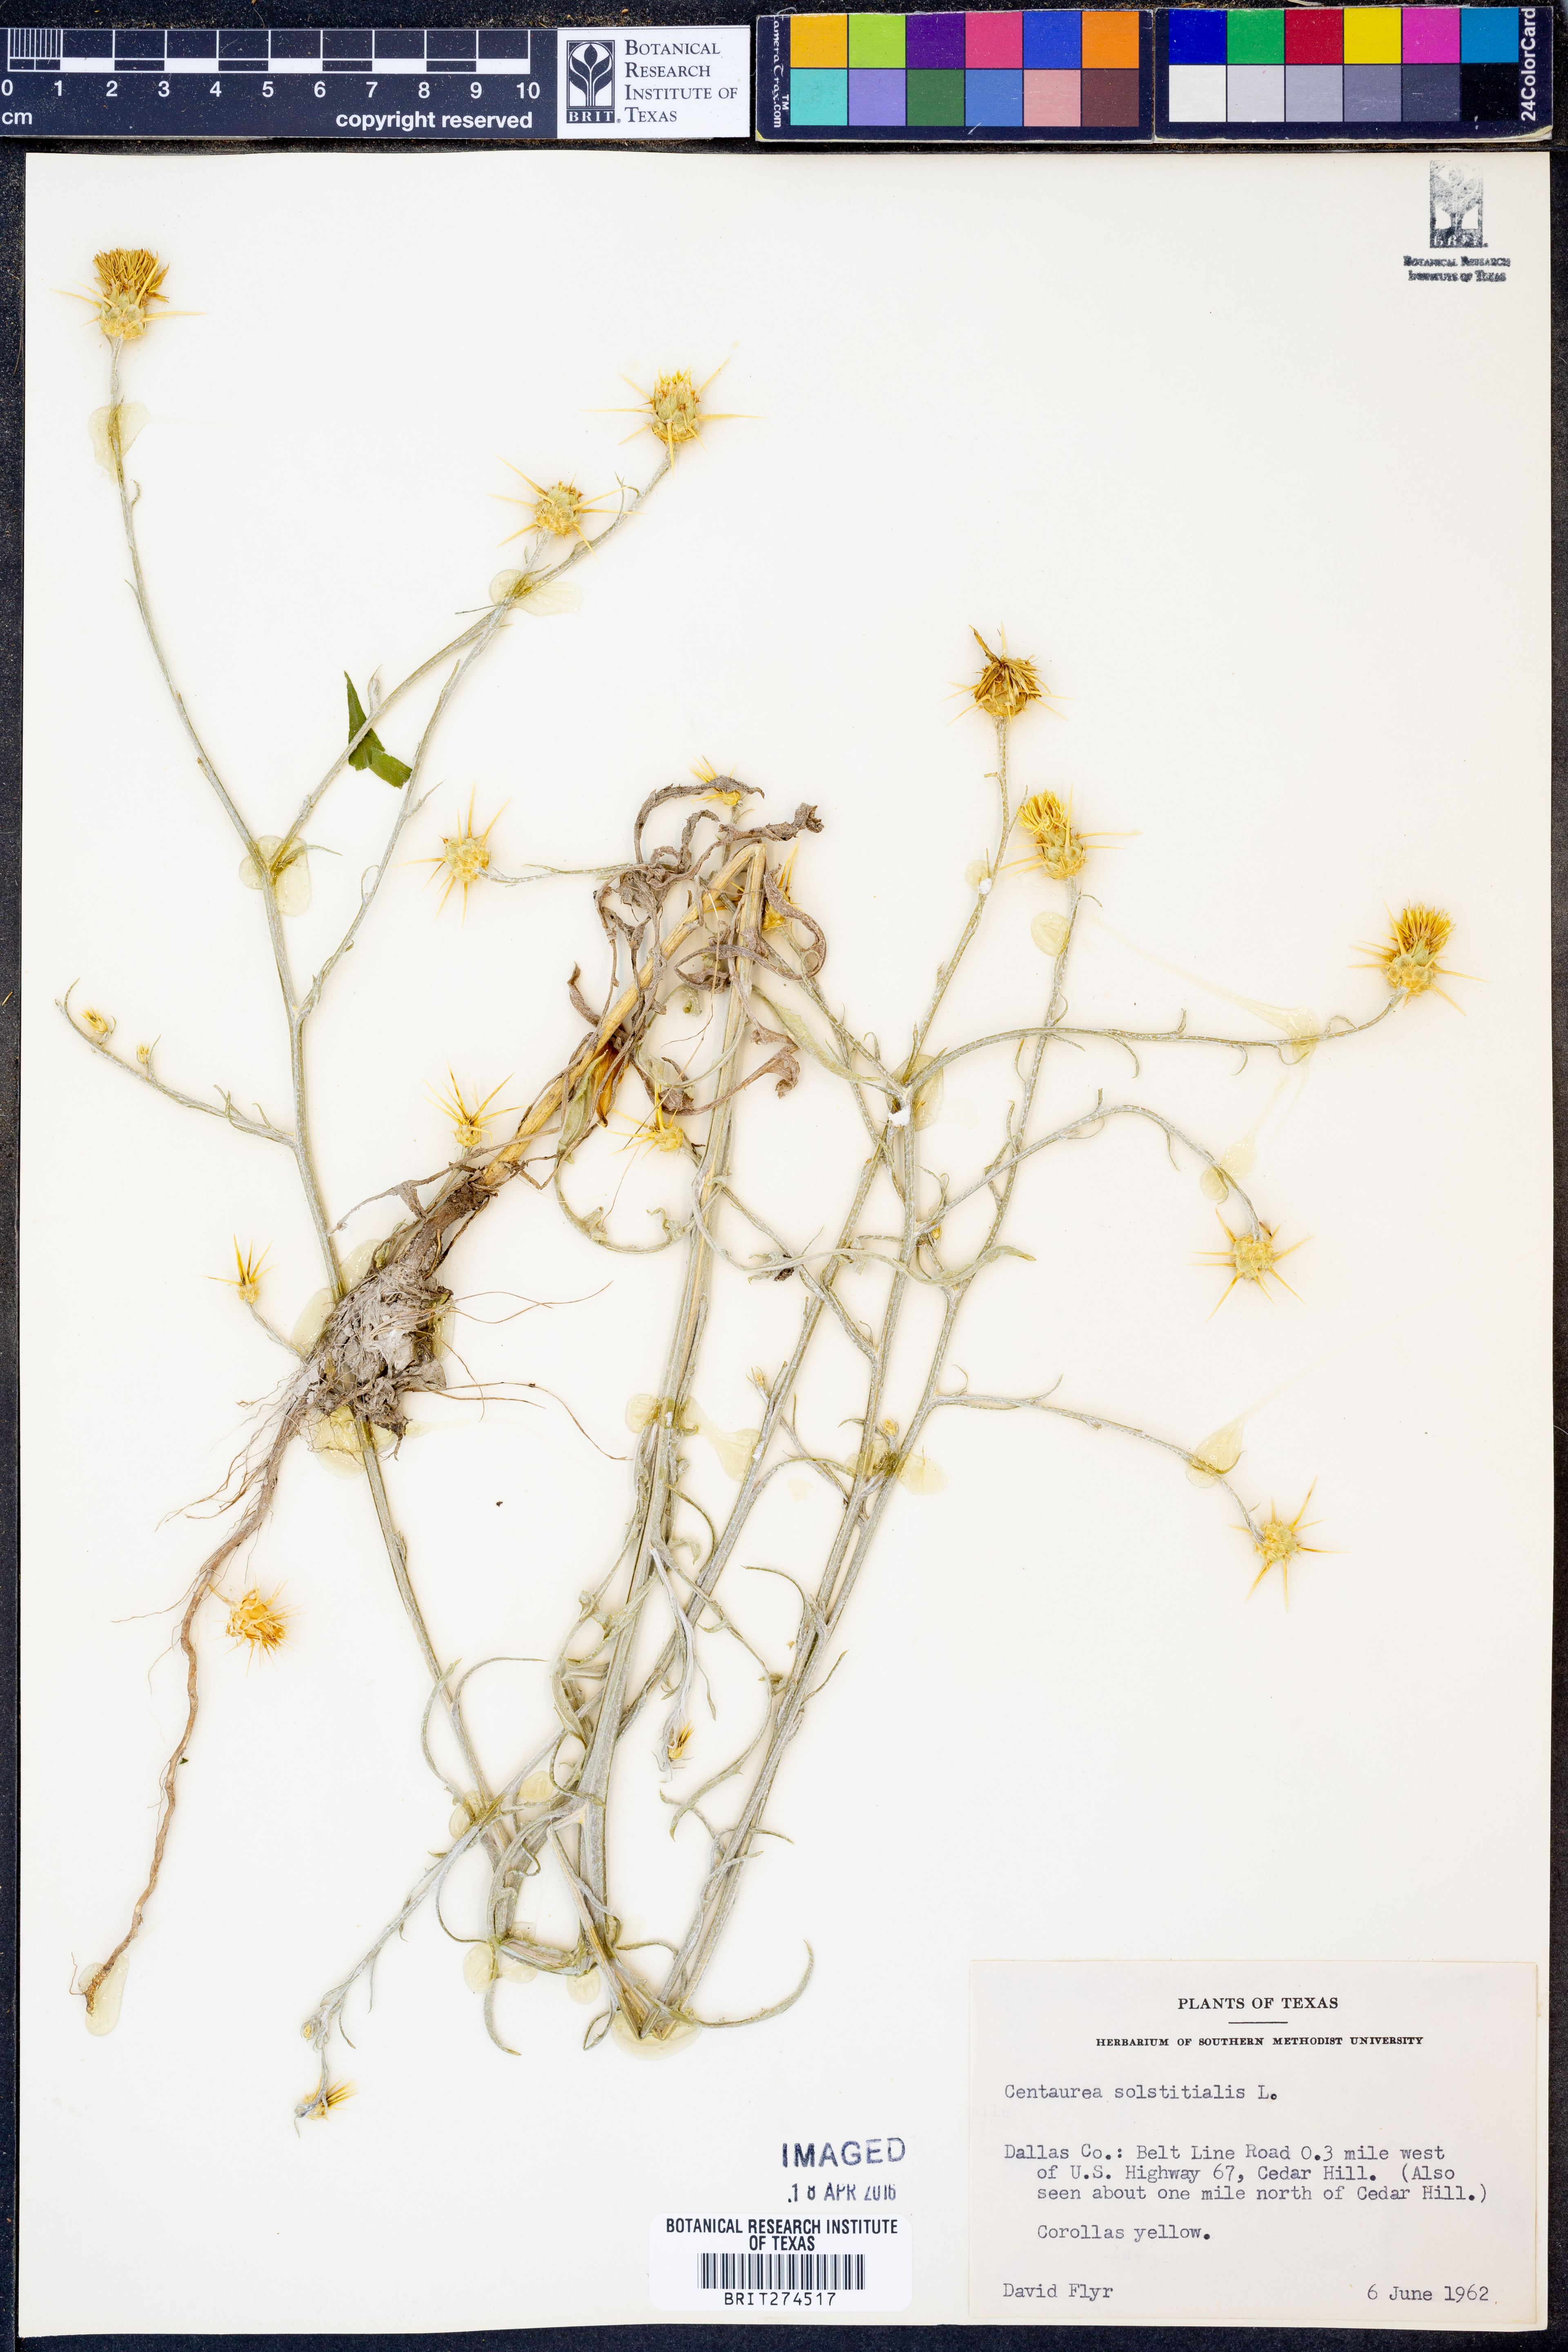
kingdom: Plantae
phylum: Tracheophyta
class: Magnoliopsida
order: Asterales
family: Asteraceae
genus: Centaurea
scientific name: Centaurea solstitialis
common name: Yellow star-thistle
